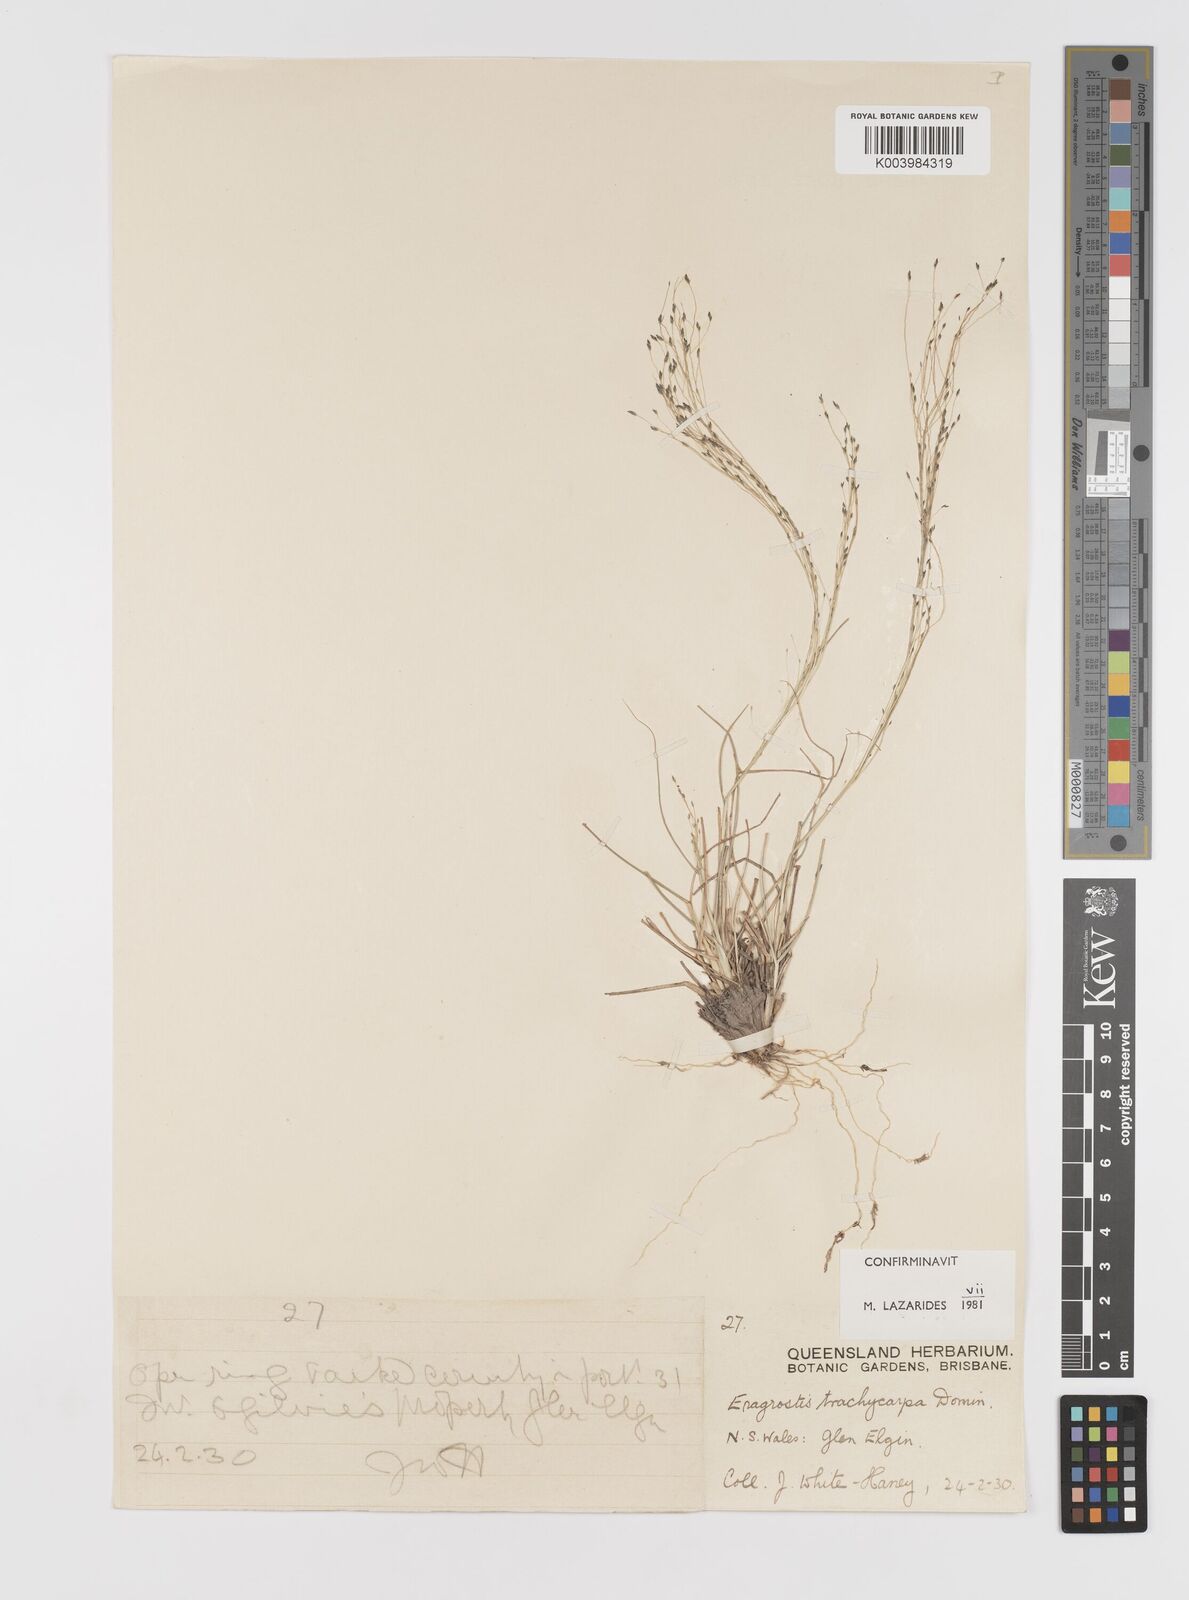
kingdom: Plantae
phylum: Tracheophyta
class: Liliopsida
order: Poales
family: Poaceae
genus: Eragrostis
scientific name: Eragrostis trachycarpa
